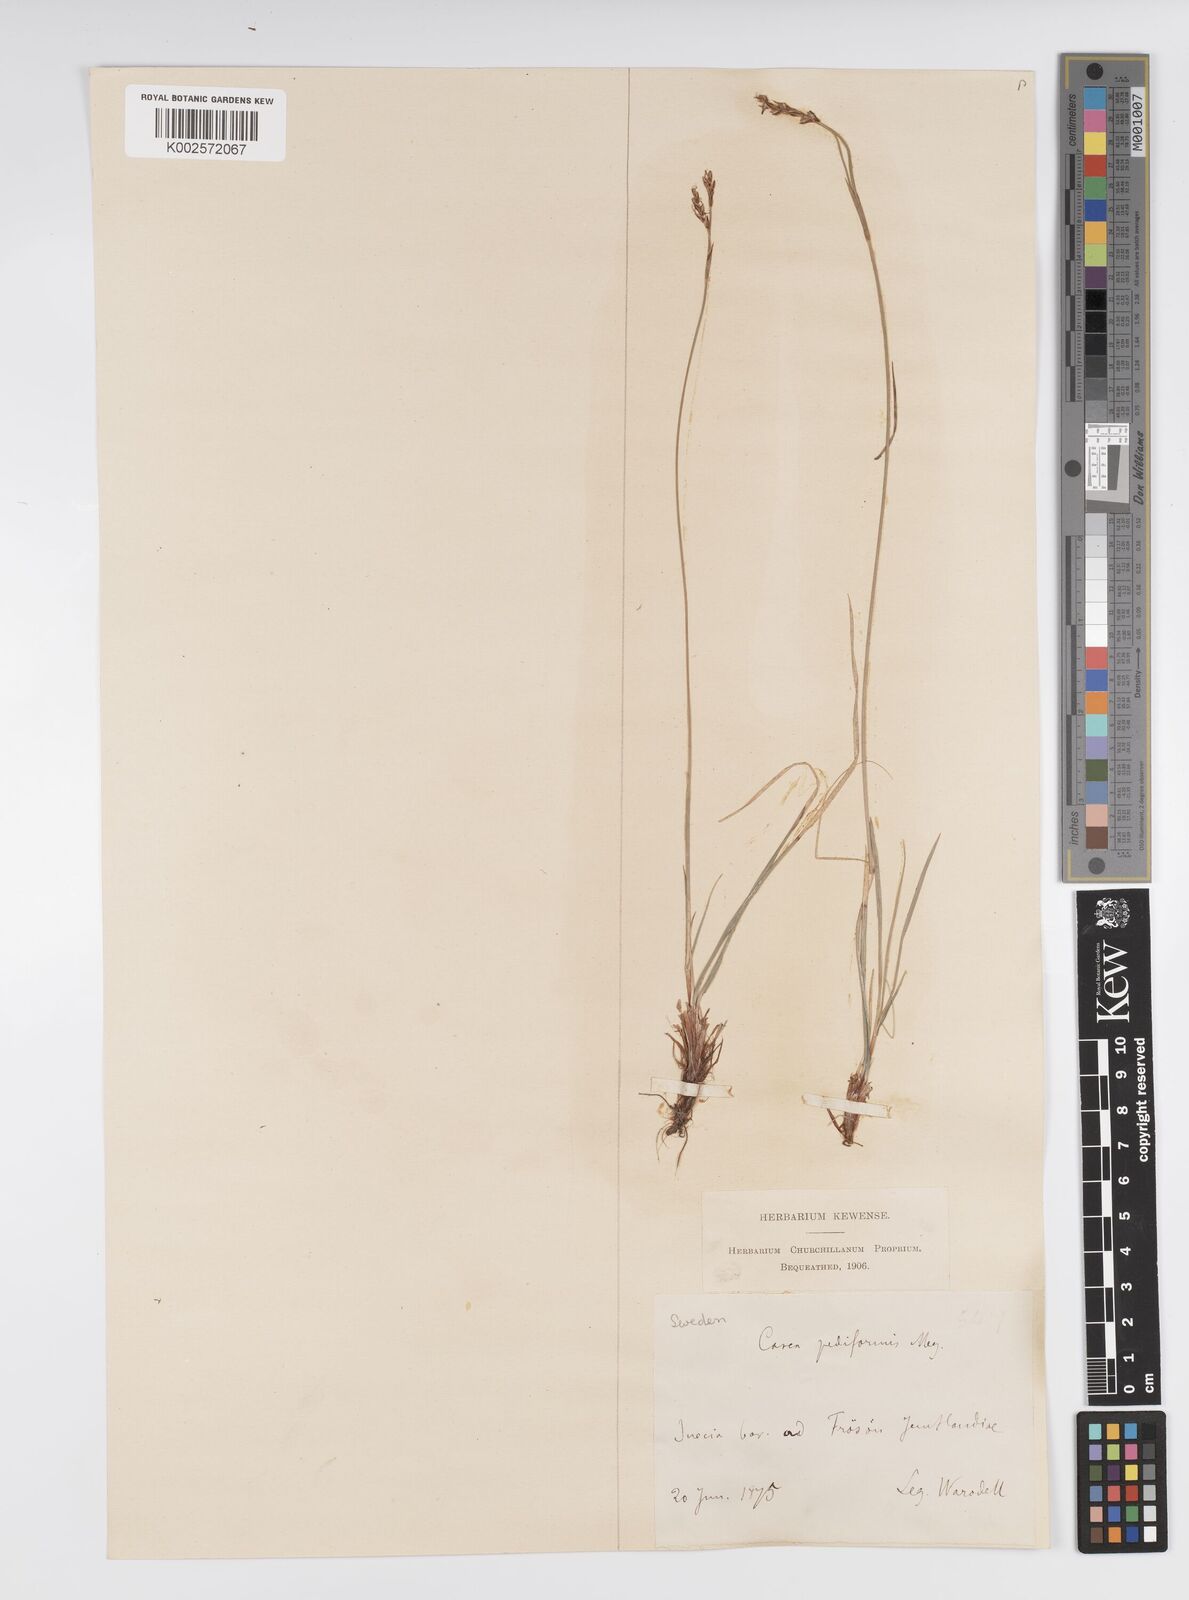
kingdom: Plantae
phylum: Tracheophyta
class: Liliopsida
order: Poales
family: Cyperaceae
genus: Carex
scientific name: Carex pediformis
